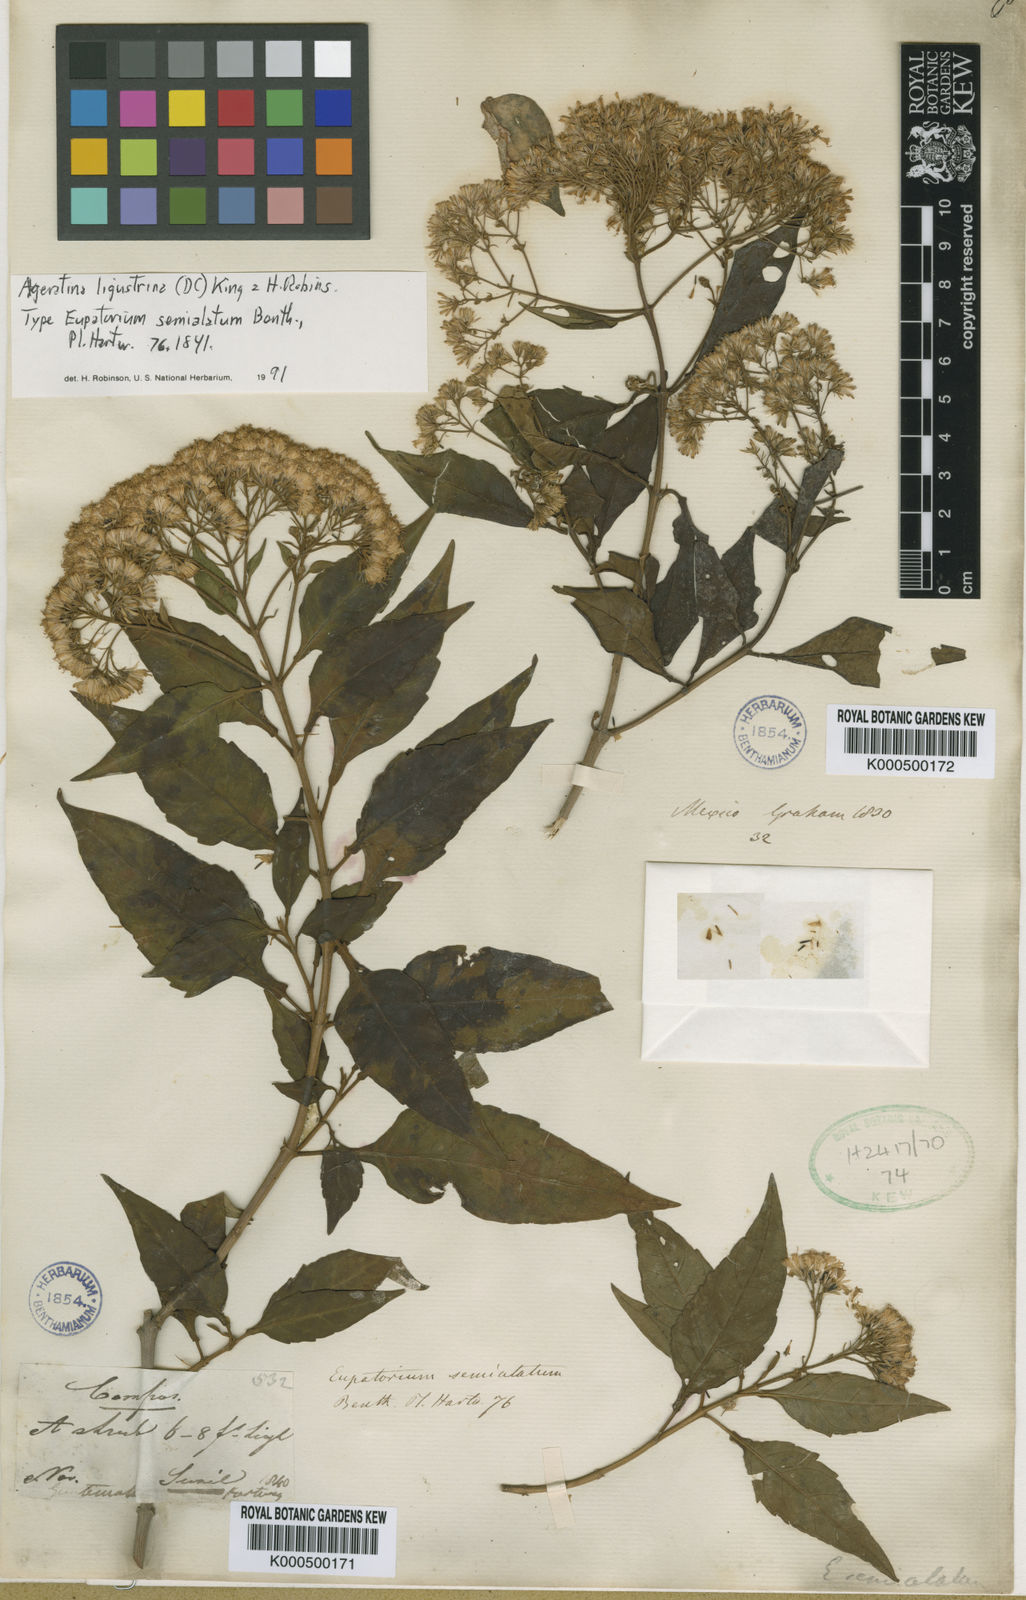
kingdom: Plantae
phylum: Tracheophyta
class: Magnoliopsida
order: Asterales
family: Asteraceae
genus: Ageratina
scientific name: Ageratina ligustrina
